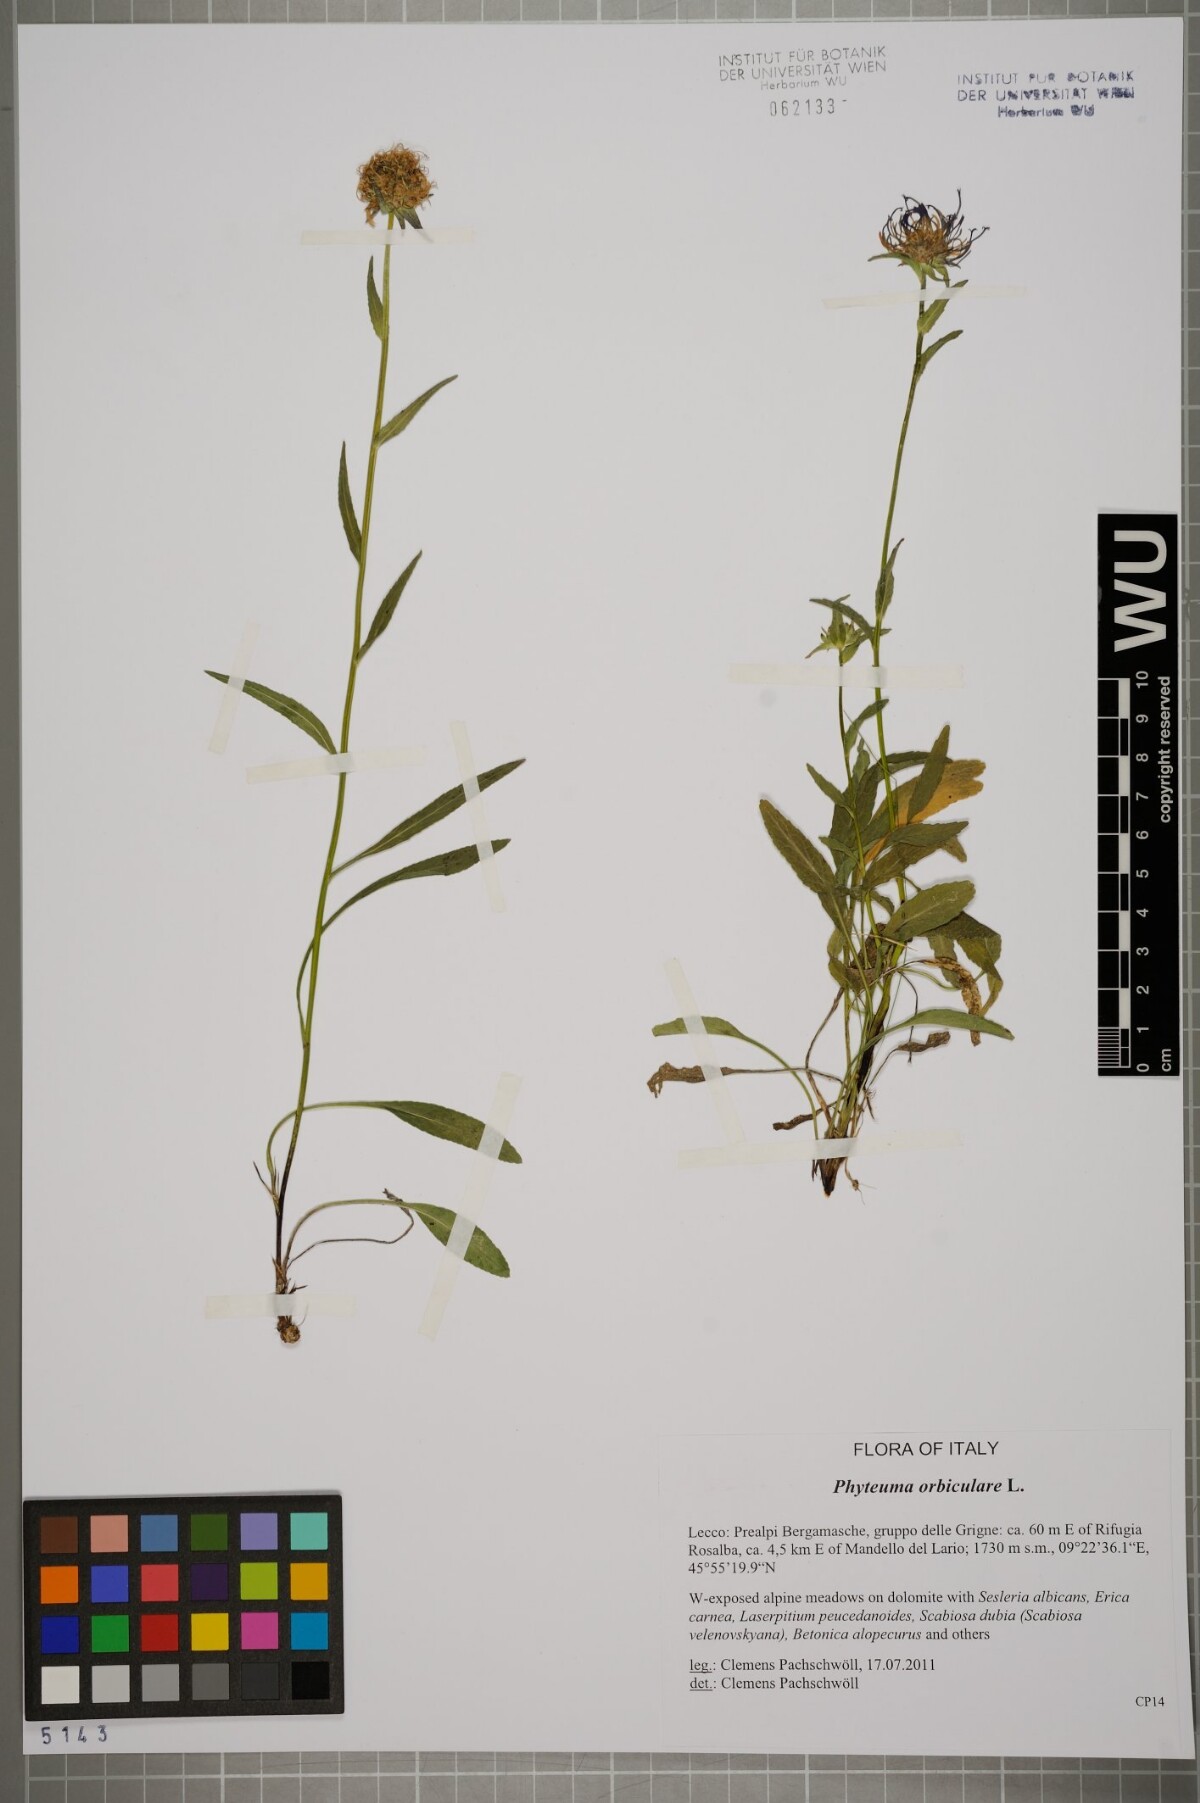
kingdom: Plantae
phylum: Tracheophyta
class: Magnoliopsida
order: Asterales
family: Campanulaceae
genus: Phyteuma
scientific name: Phyteuma orbiculare
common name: Round-headed rampion
